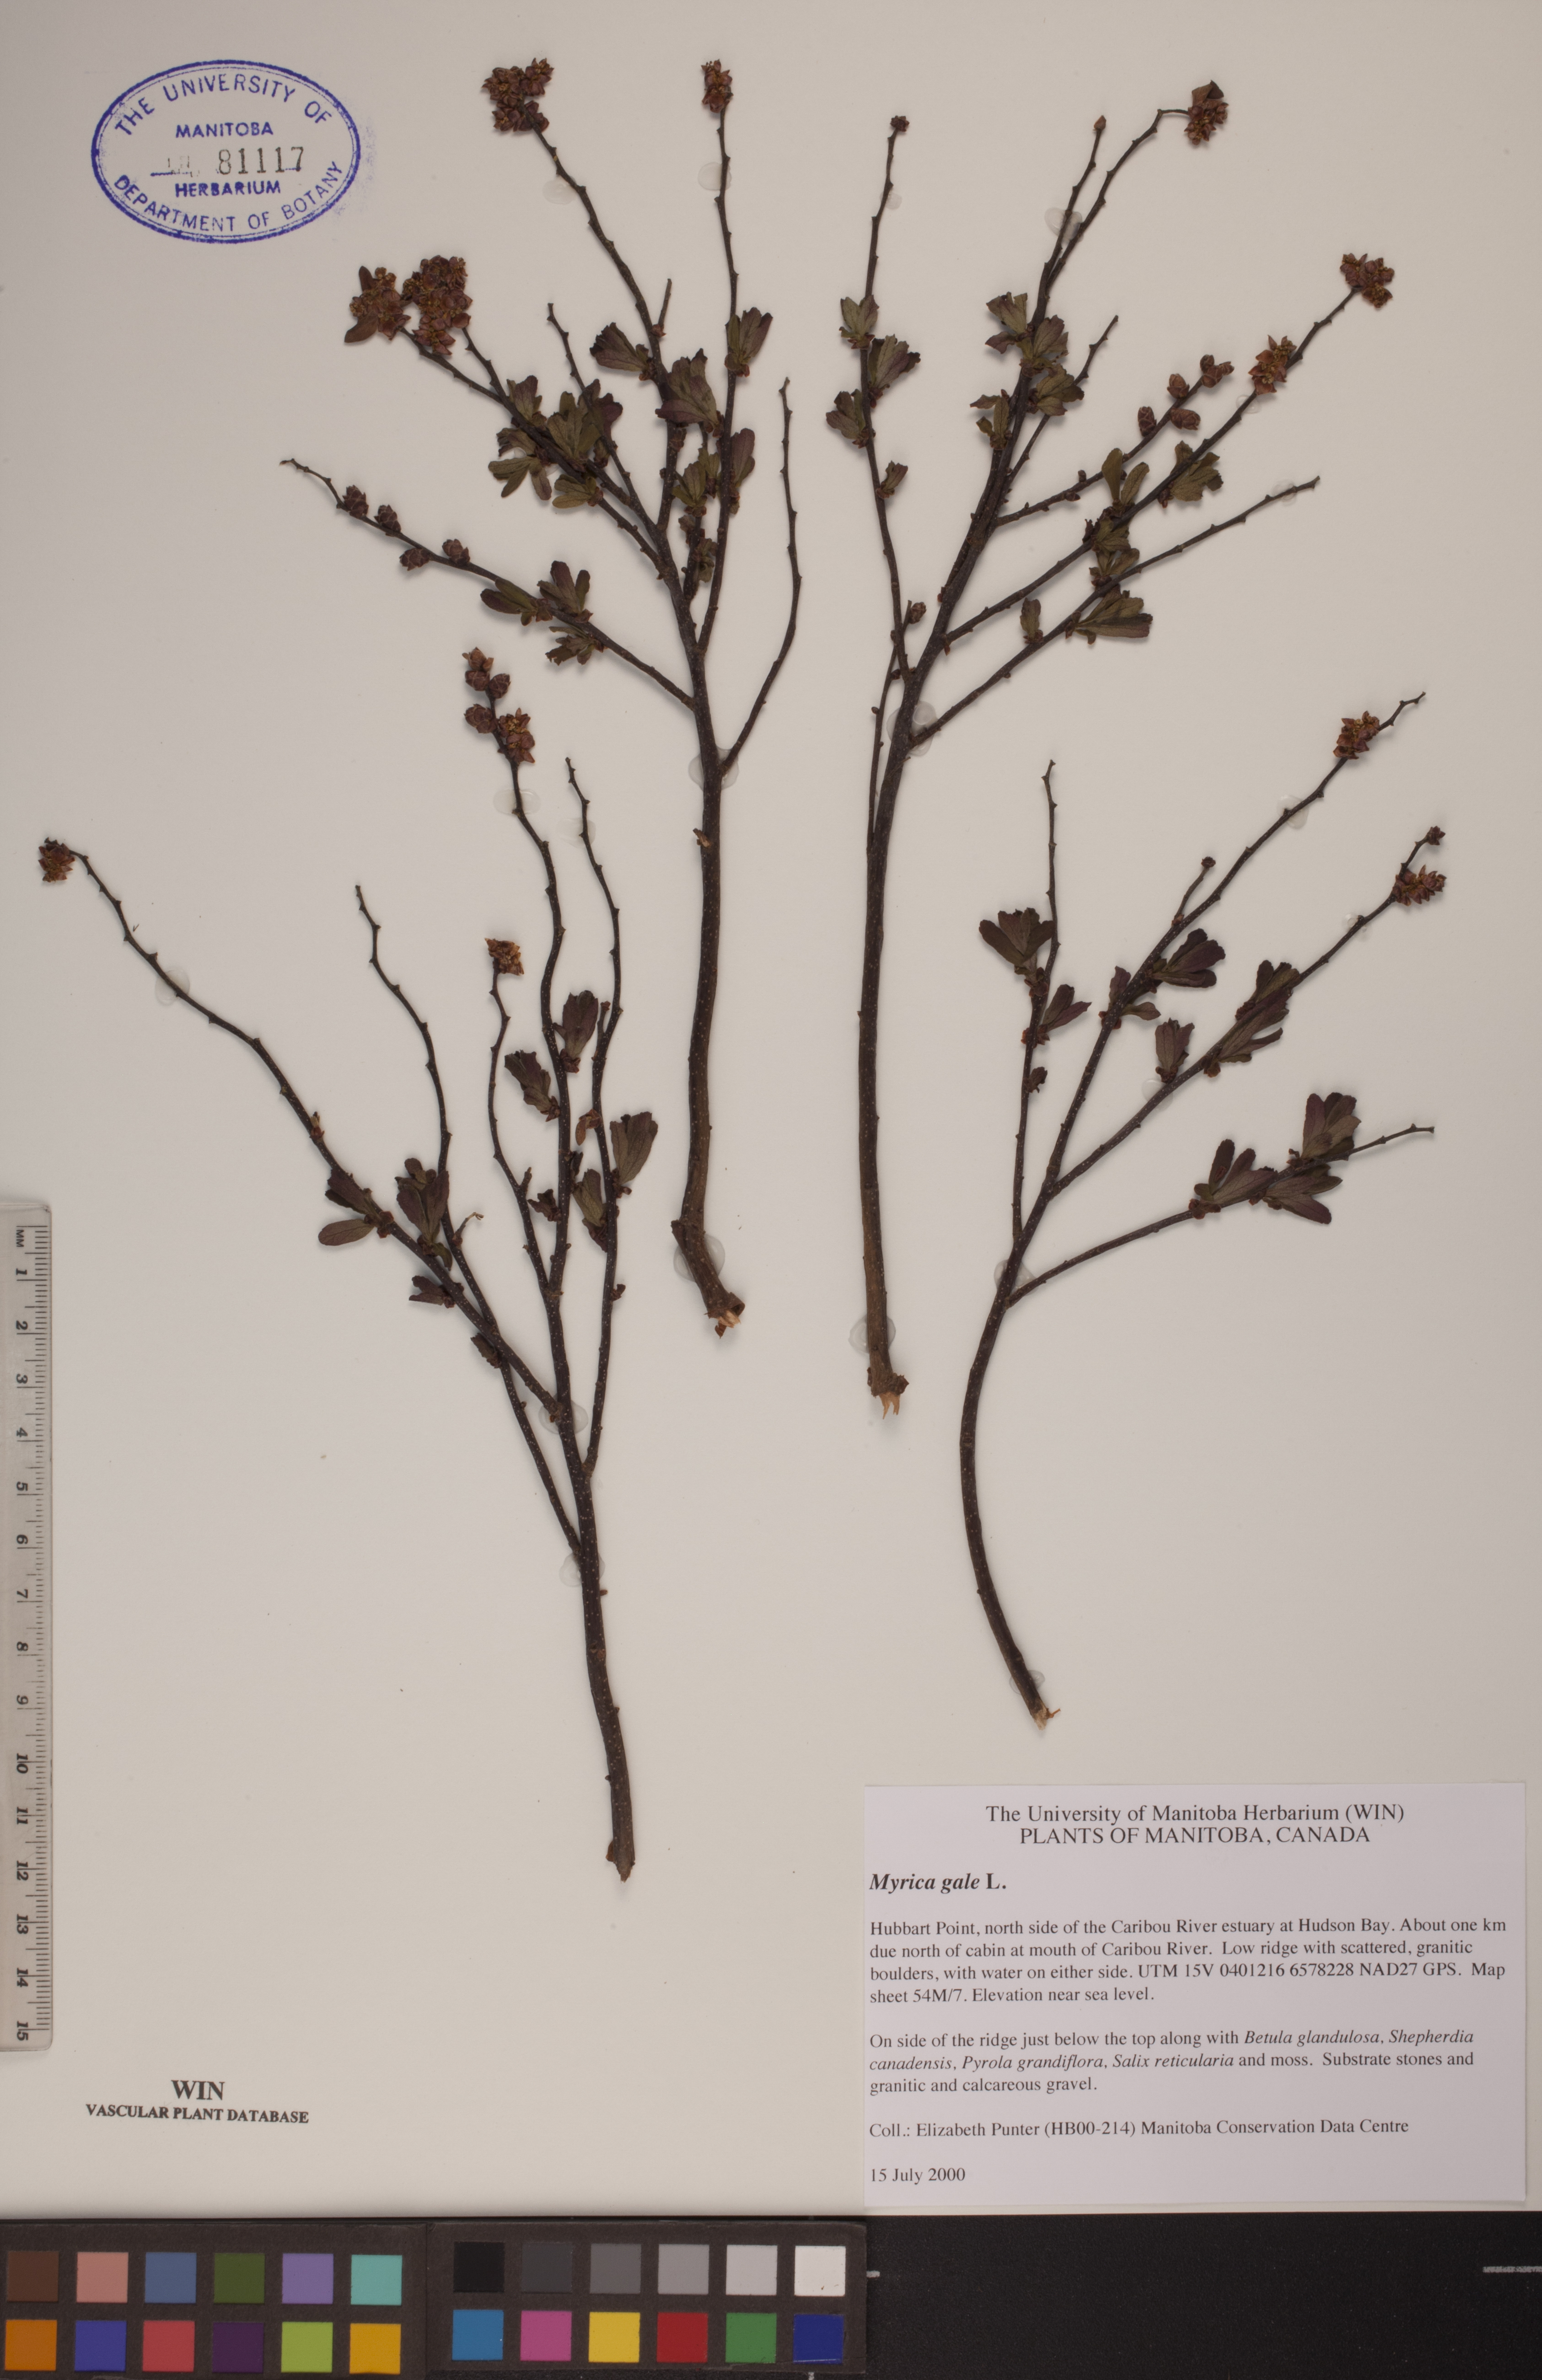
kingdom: Plantae
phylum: Tracheophyta
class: Magnoliopsida
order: Fagales
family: Myricaceae
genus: Myrica
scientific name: Myrica gale
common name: Sweet gale
